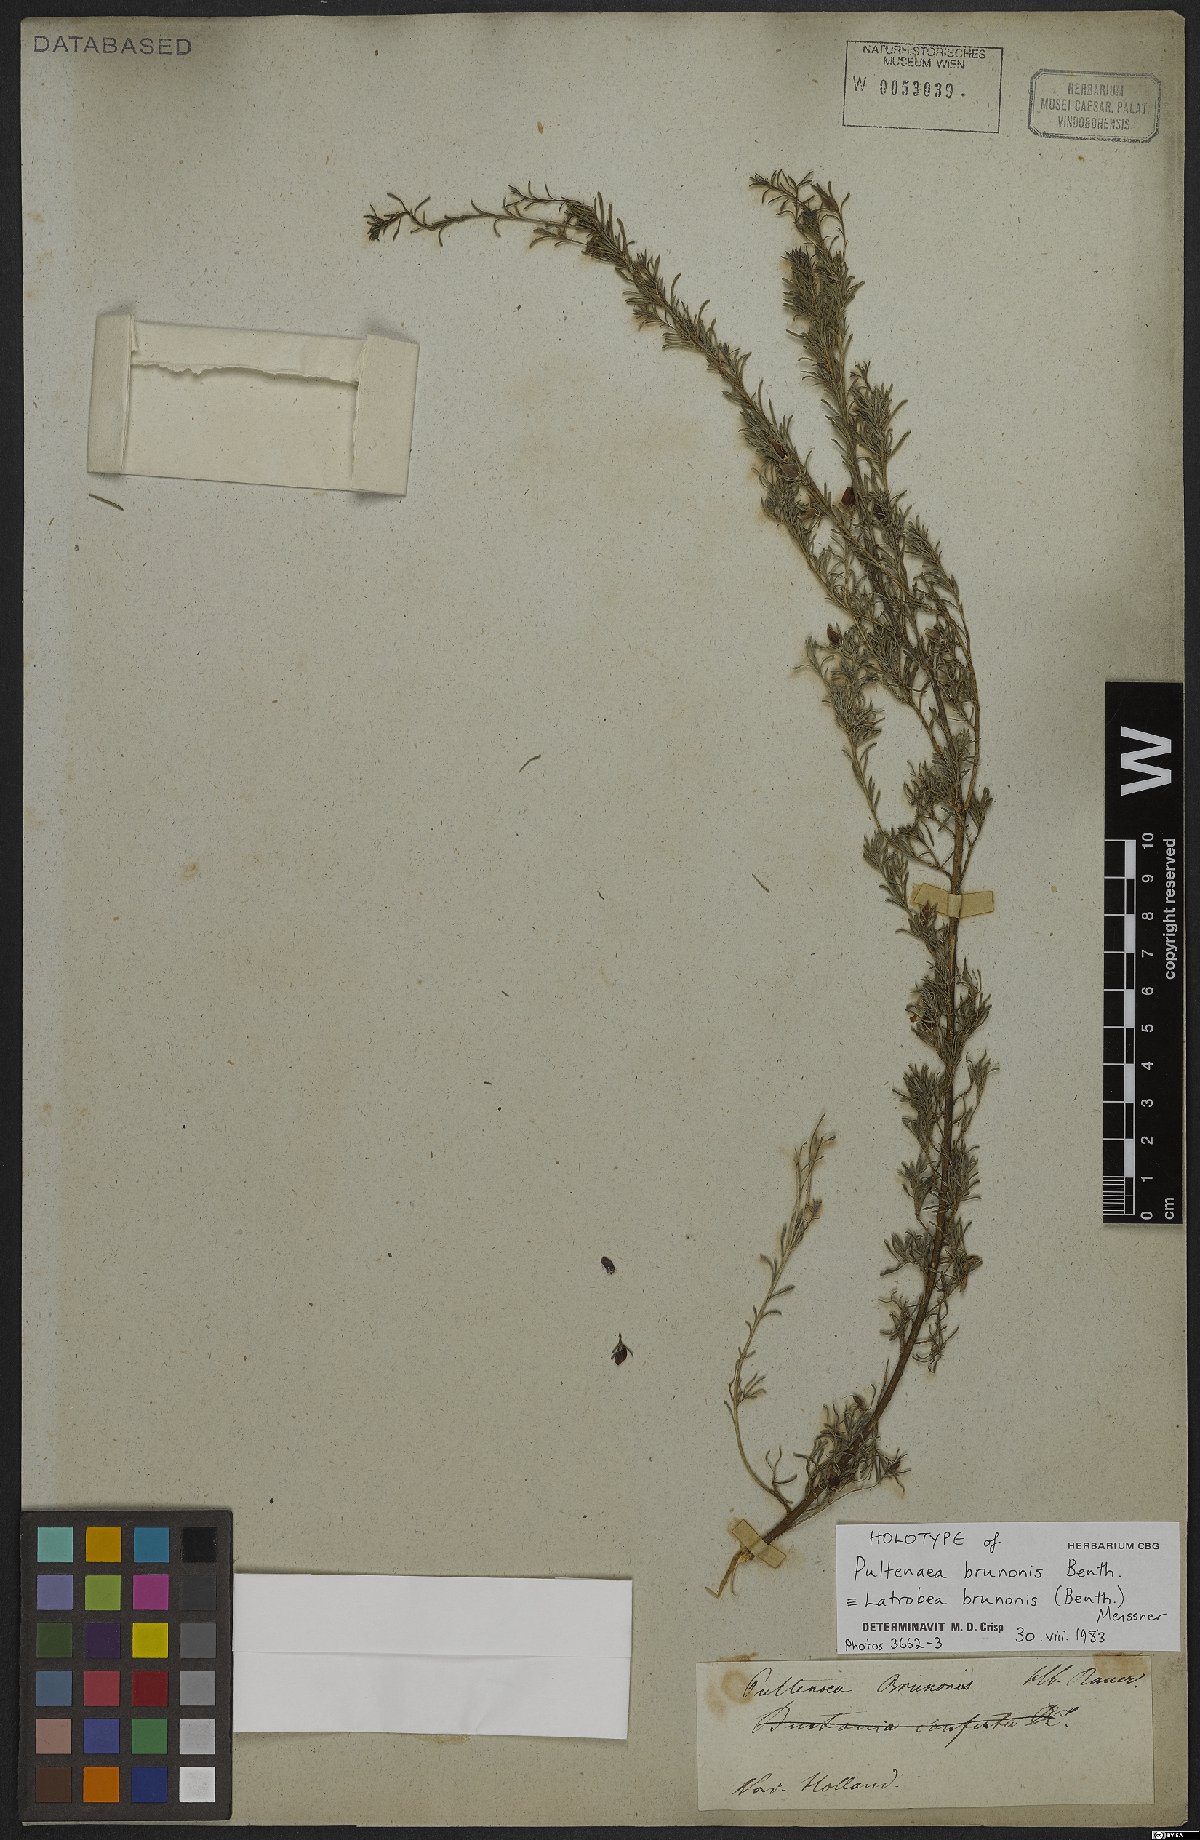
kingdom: Plantae
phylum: Tracheophyta
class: Magnoliopsida
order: Fabales
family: Fabaceae
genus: Latrobea
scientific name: Latrobea brunonis
